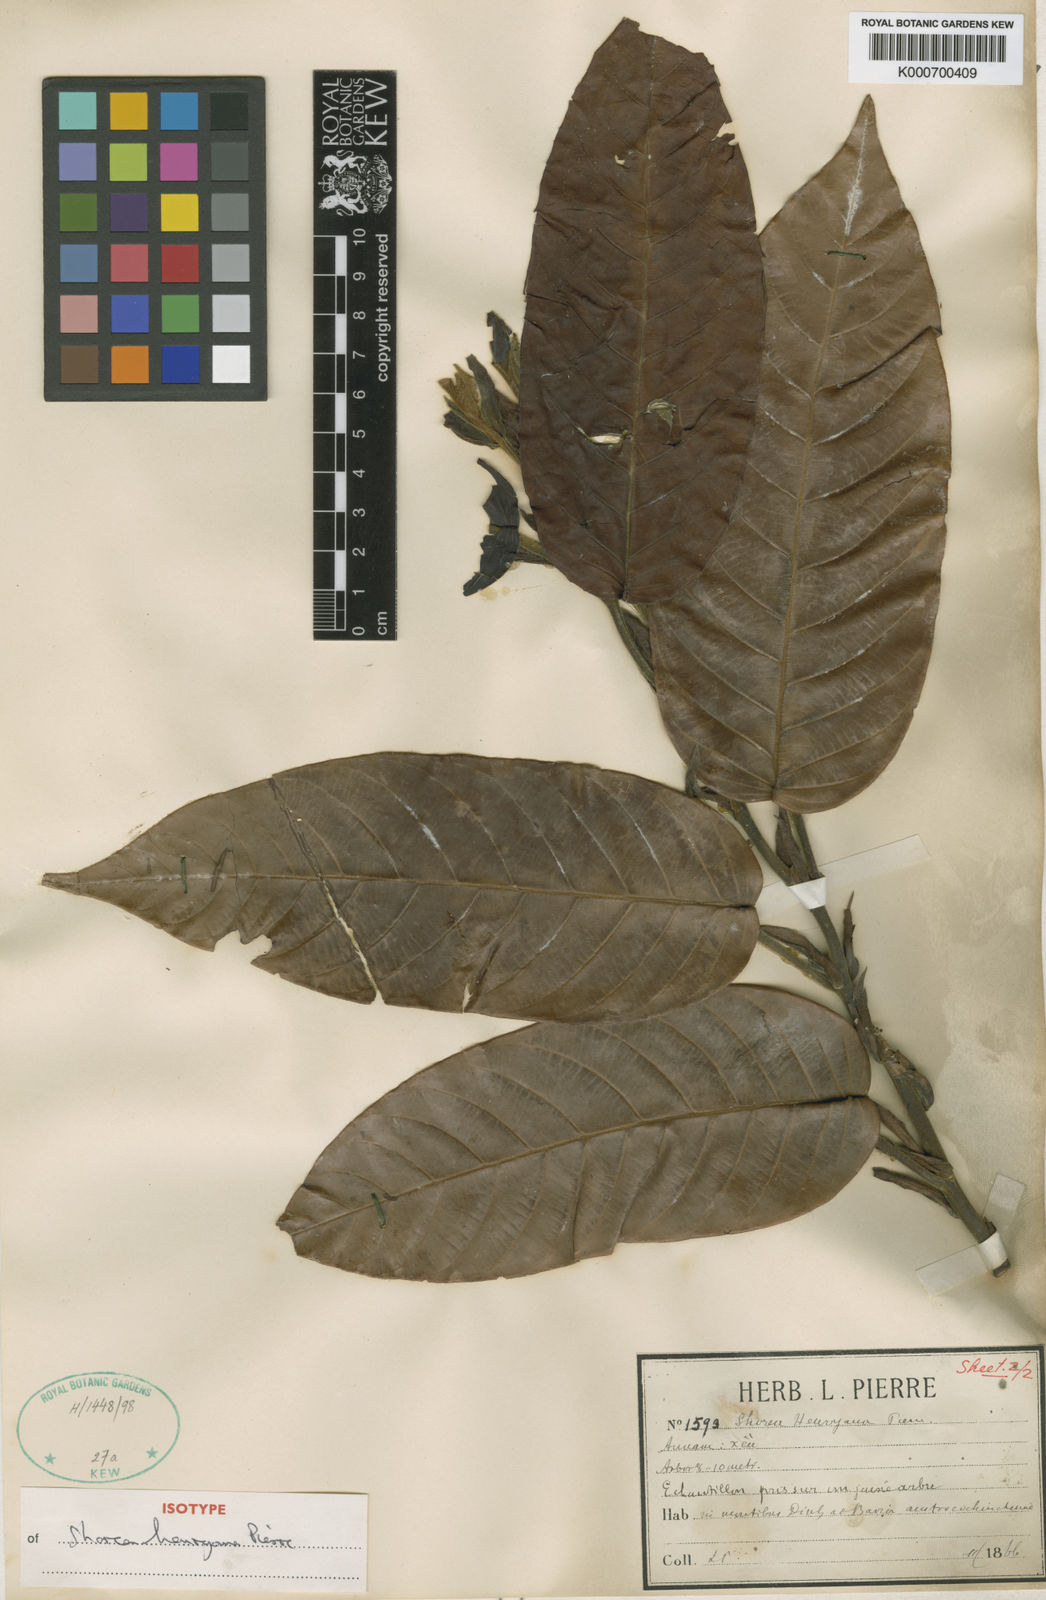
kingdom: Plantae
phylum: Tracheophyta
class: Magnoliopsida
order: Malvales
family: Dipterocarpaceae
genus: Shorea
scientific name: Shorea
